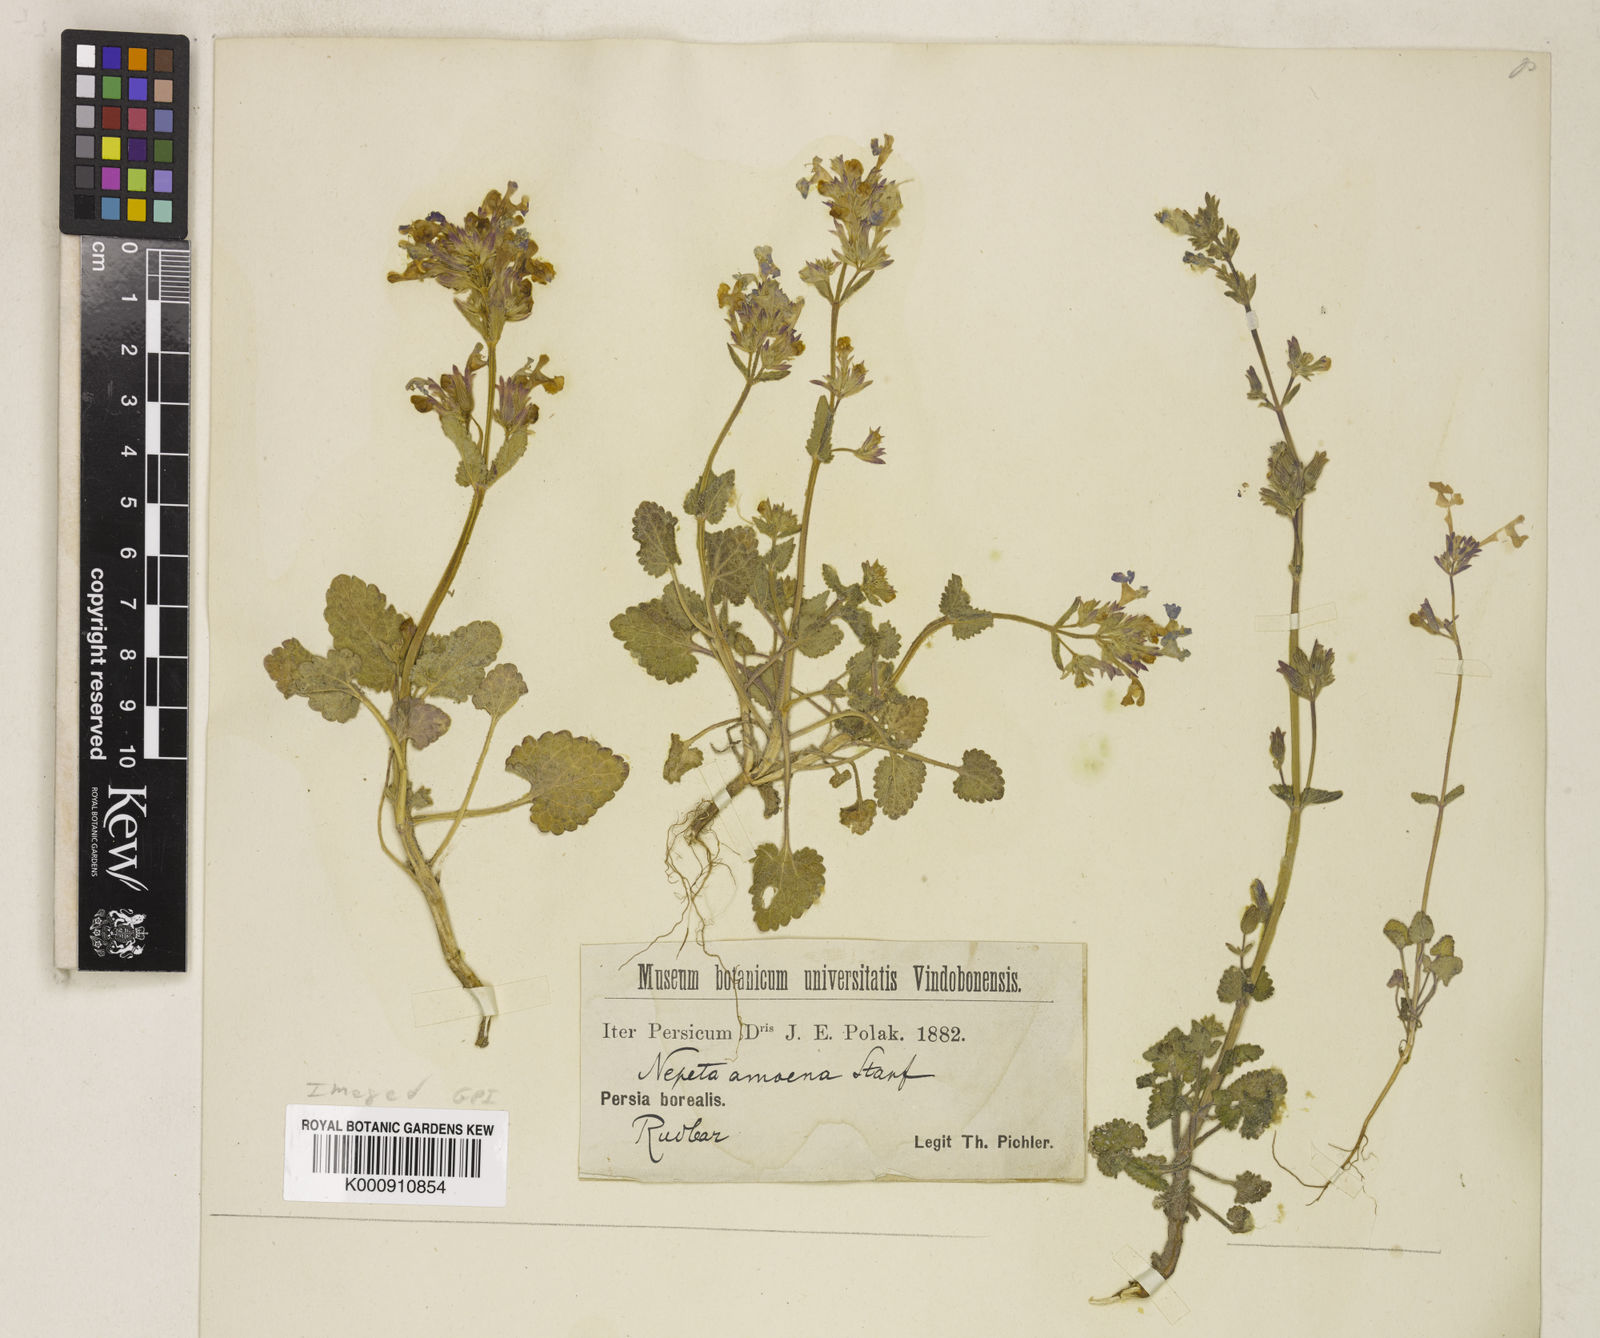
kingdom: Plantae
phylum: Tracheophyta
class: Magnoliopsida
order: Lamiales
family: Lamiaceae
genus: Nepeta
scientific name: Nepeta amoena
